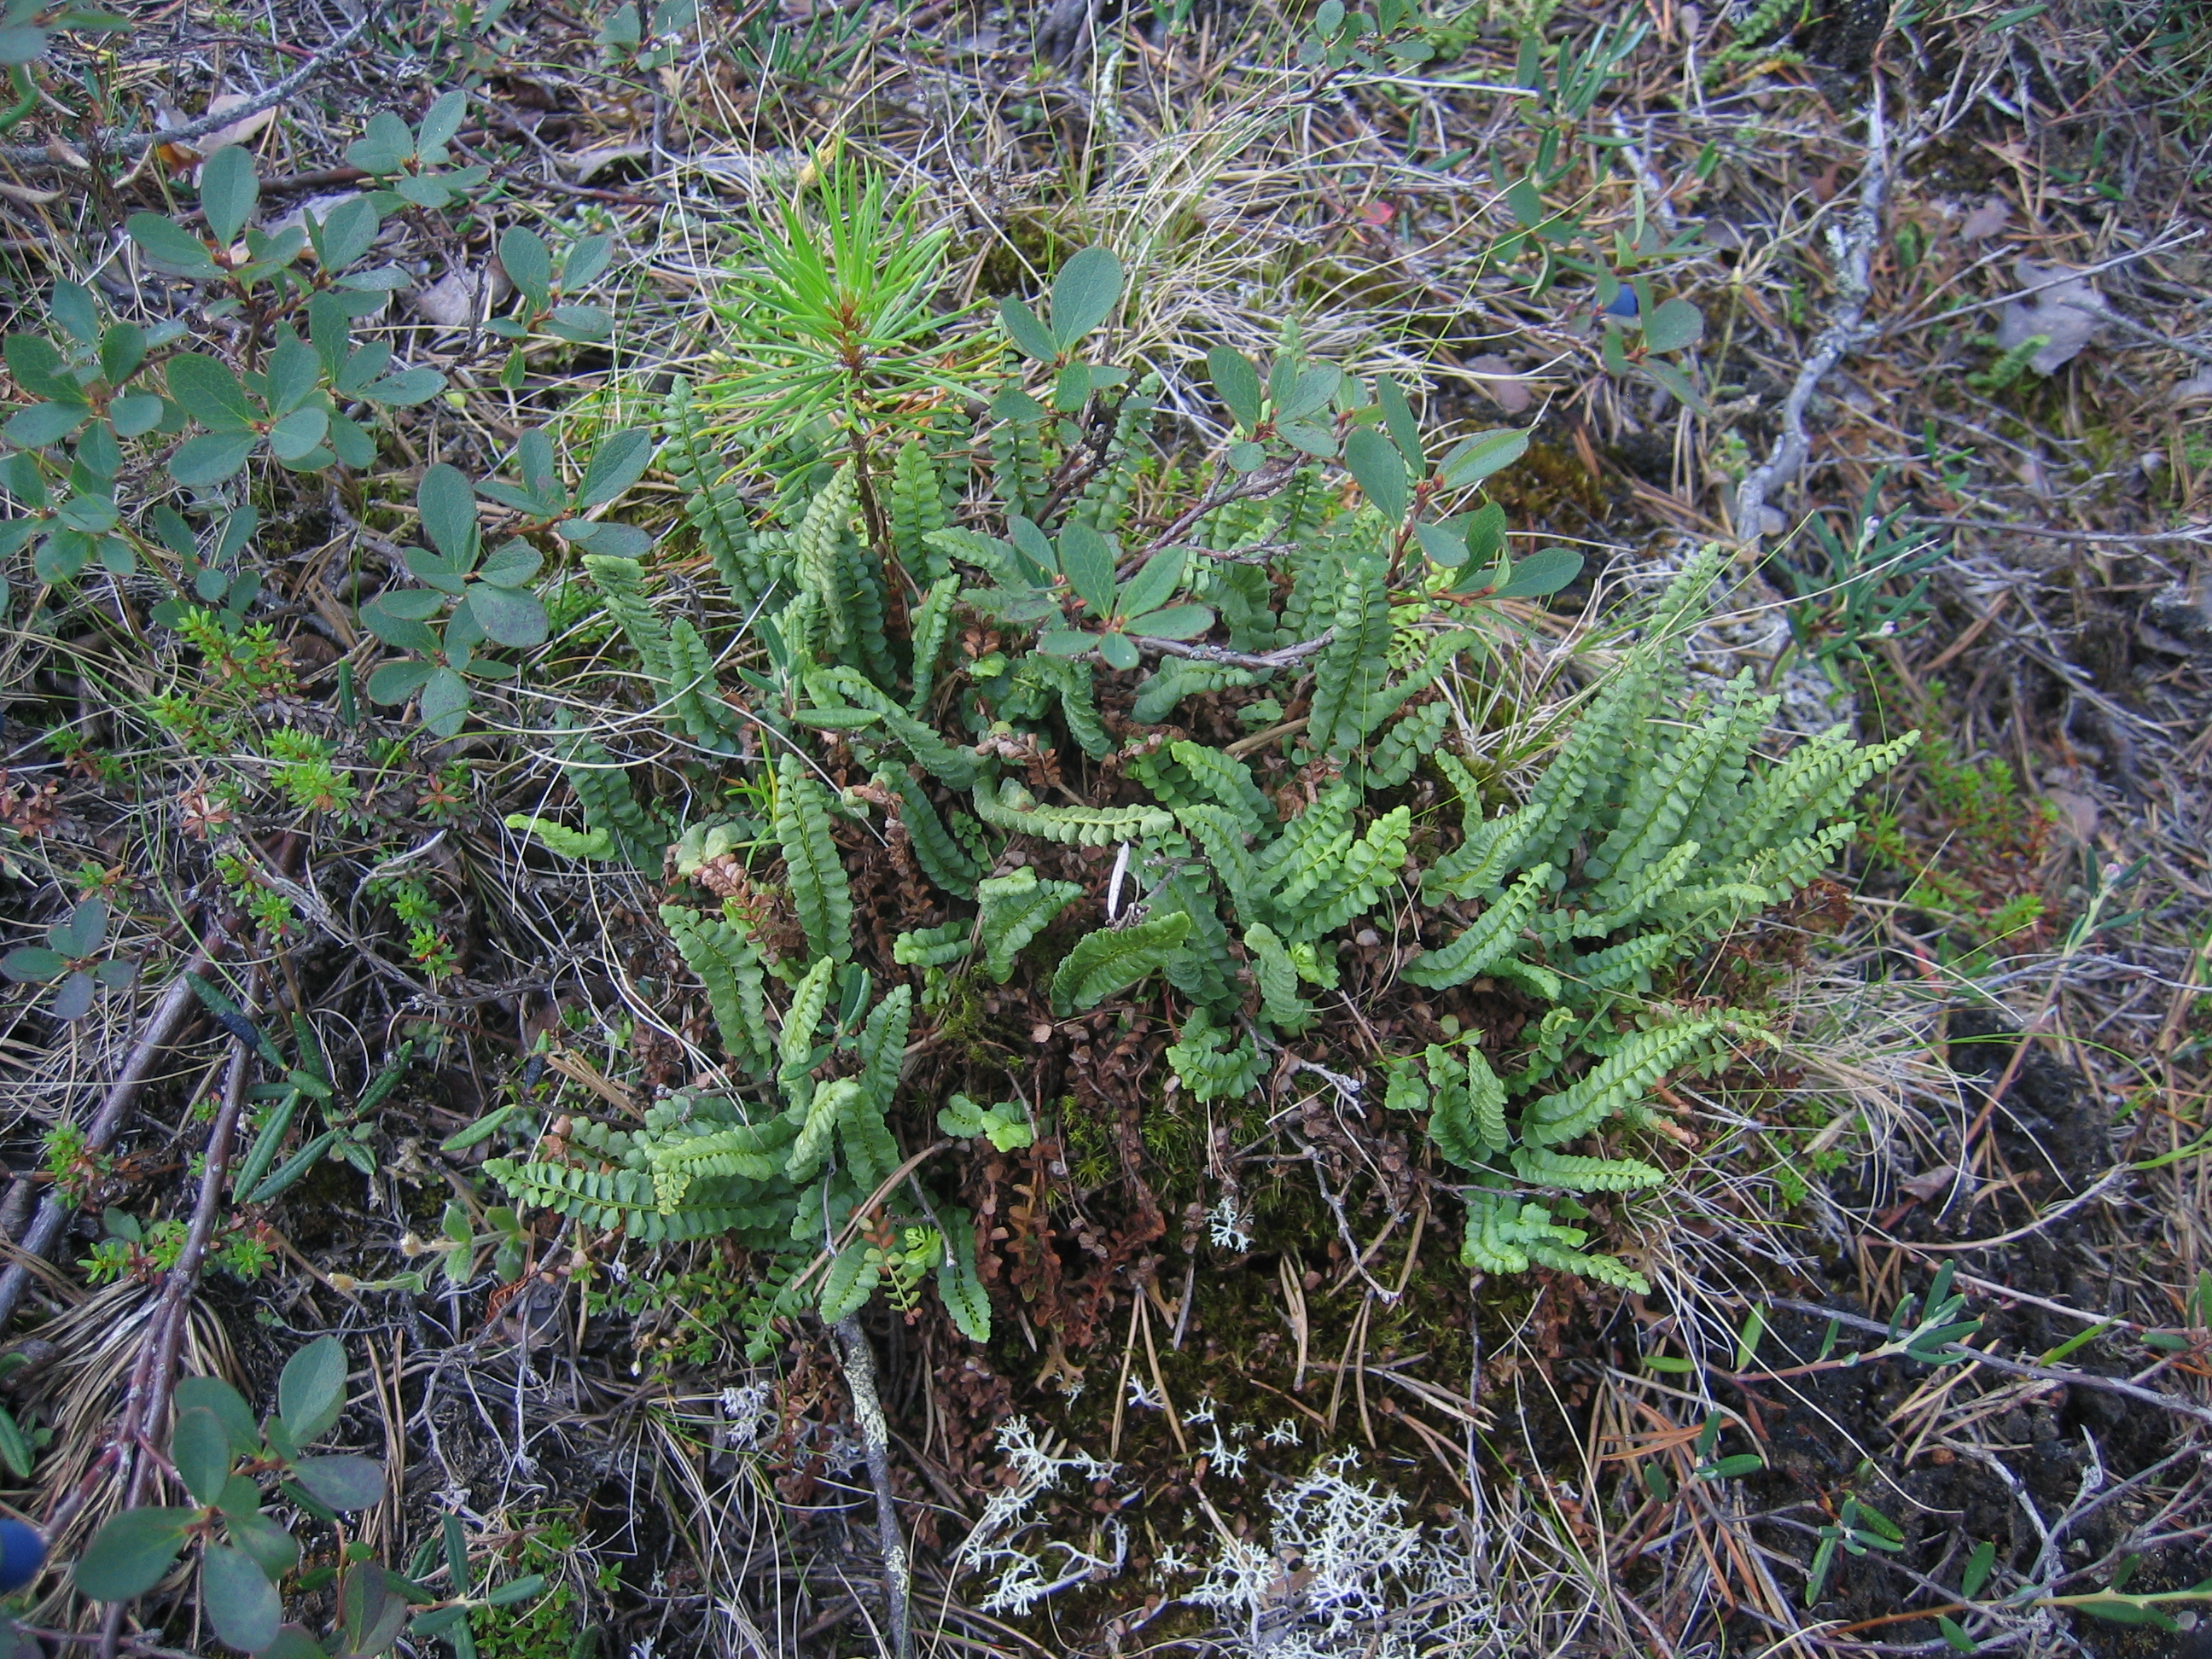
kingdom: Plantae
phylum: Tracheophyta
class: Polypodiopsida
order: Polypodiales
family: Aspleniaceae
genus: Asplenium
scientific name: Asplenium viride
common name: Green spleenwort
